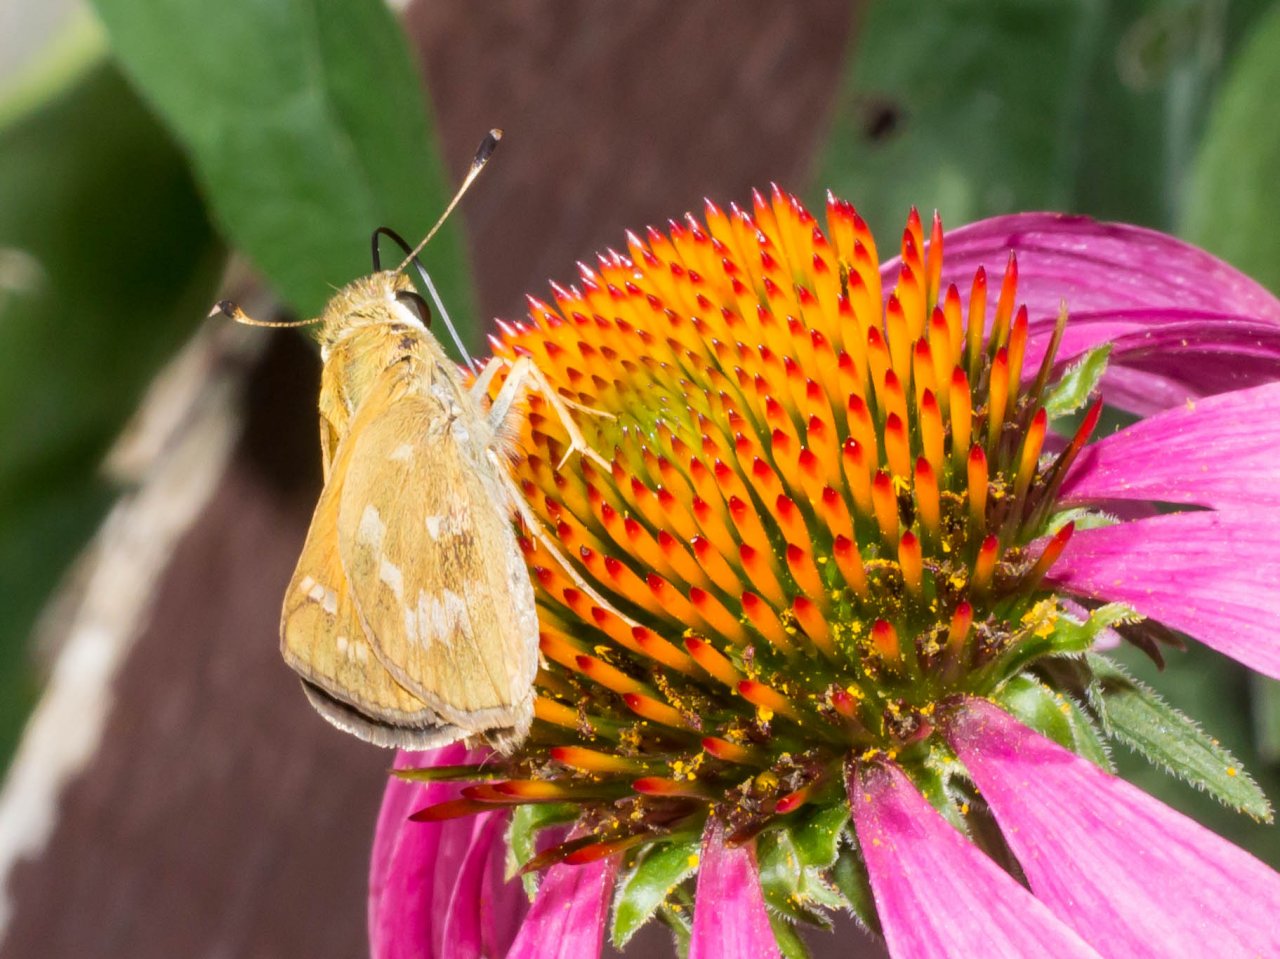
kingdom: Animalia
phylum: Arthropoda
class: Insecta
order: Lepidoptera
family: Hesperiidae
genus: Atalopedes
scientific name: Atalopedes campestris
